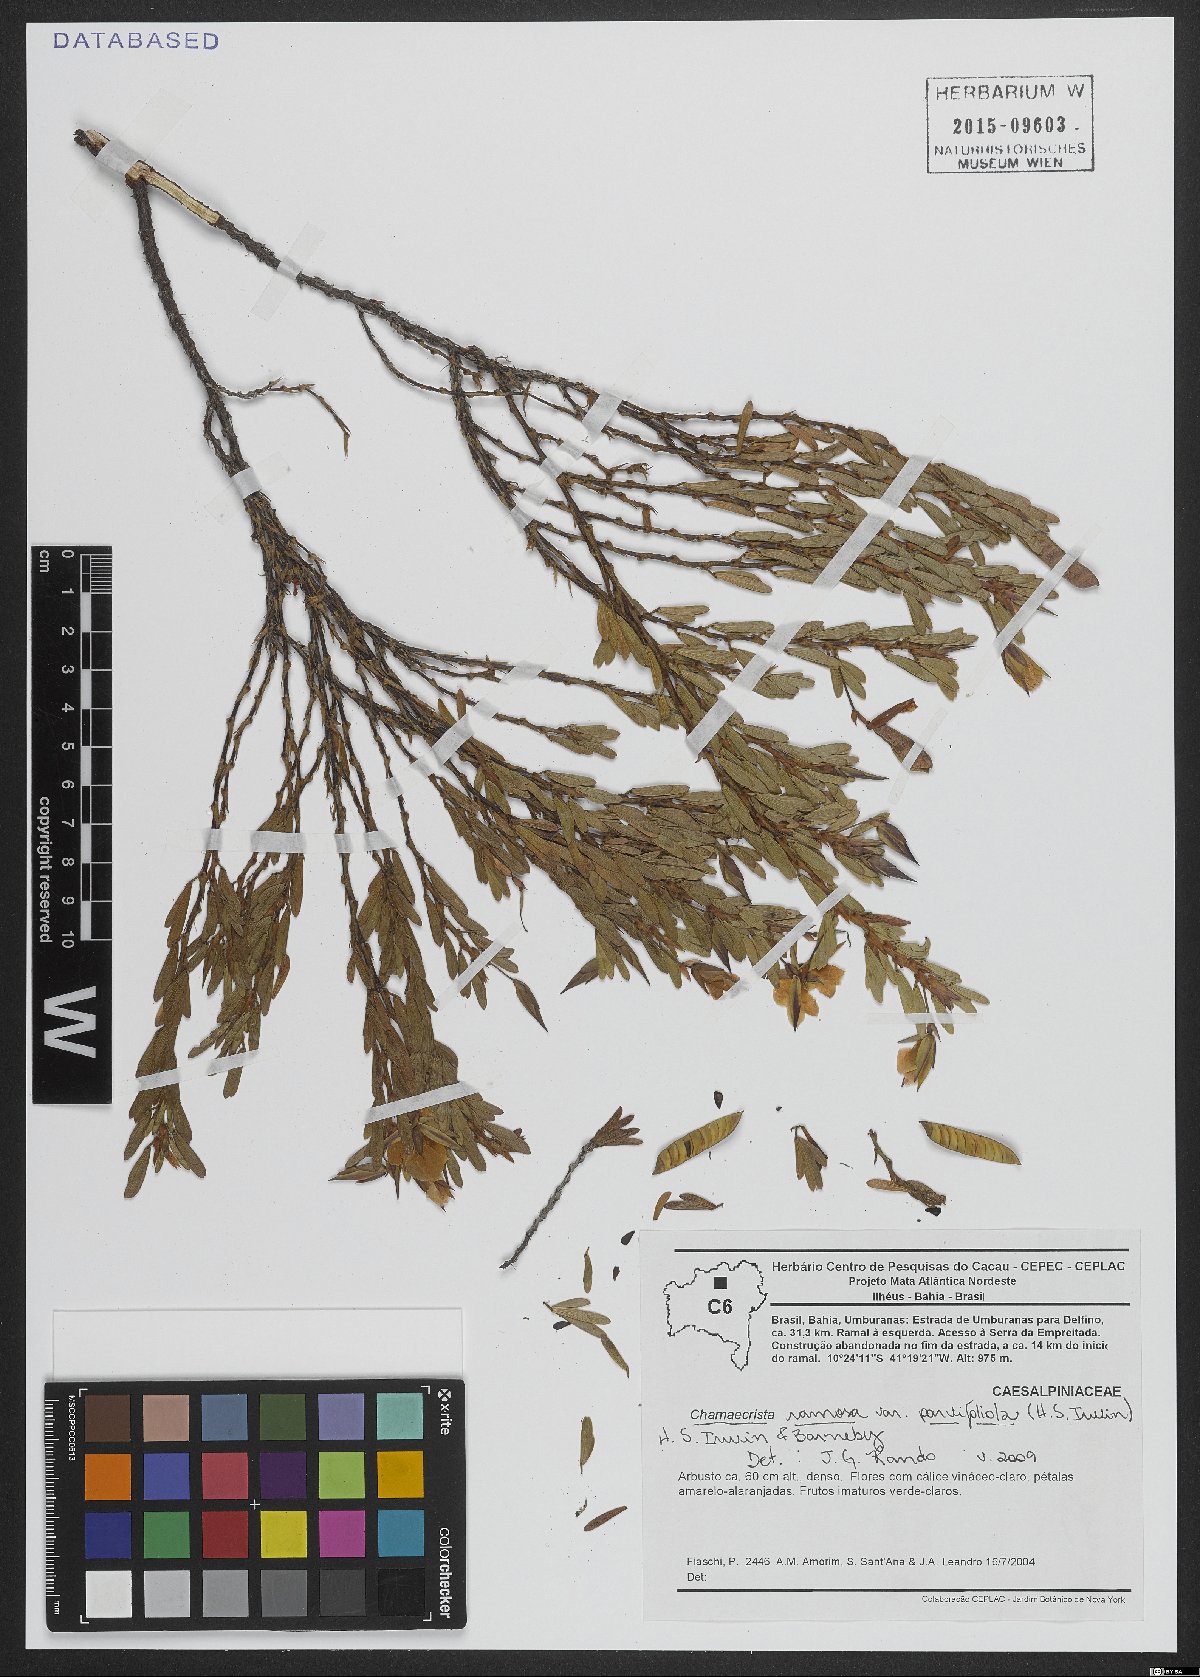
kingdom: Plantae
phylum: Tracheophyta
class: Magnoliopsida
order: Fabales
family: Fabaceae
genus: Chamaecrista
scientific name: Chamaecrista ramosa
